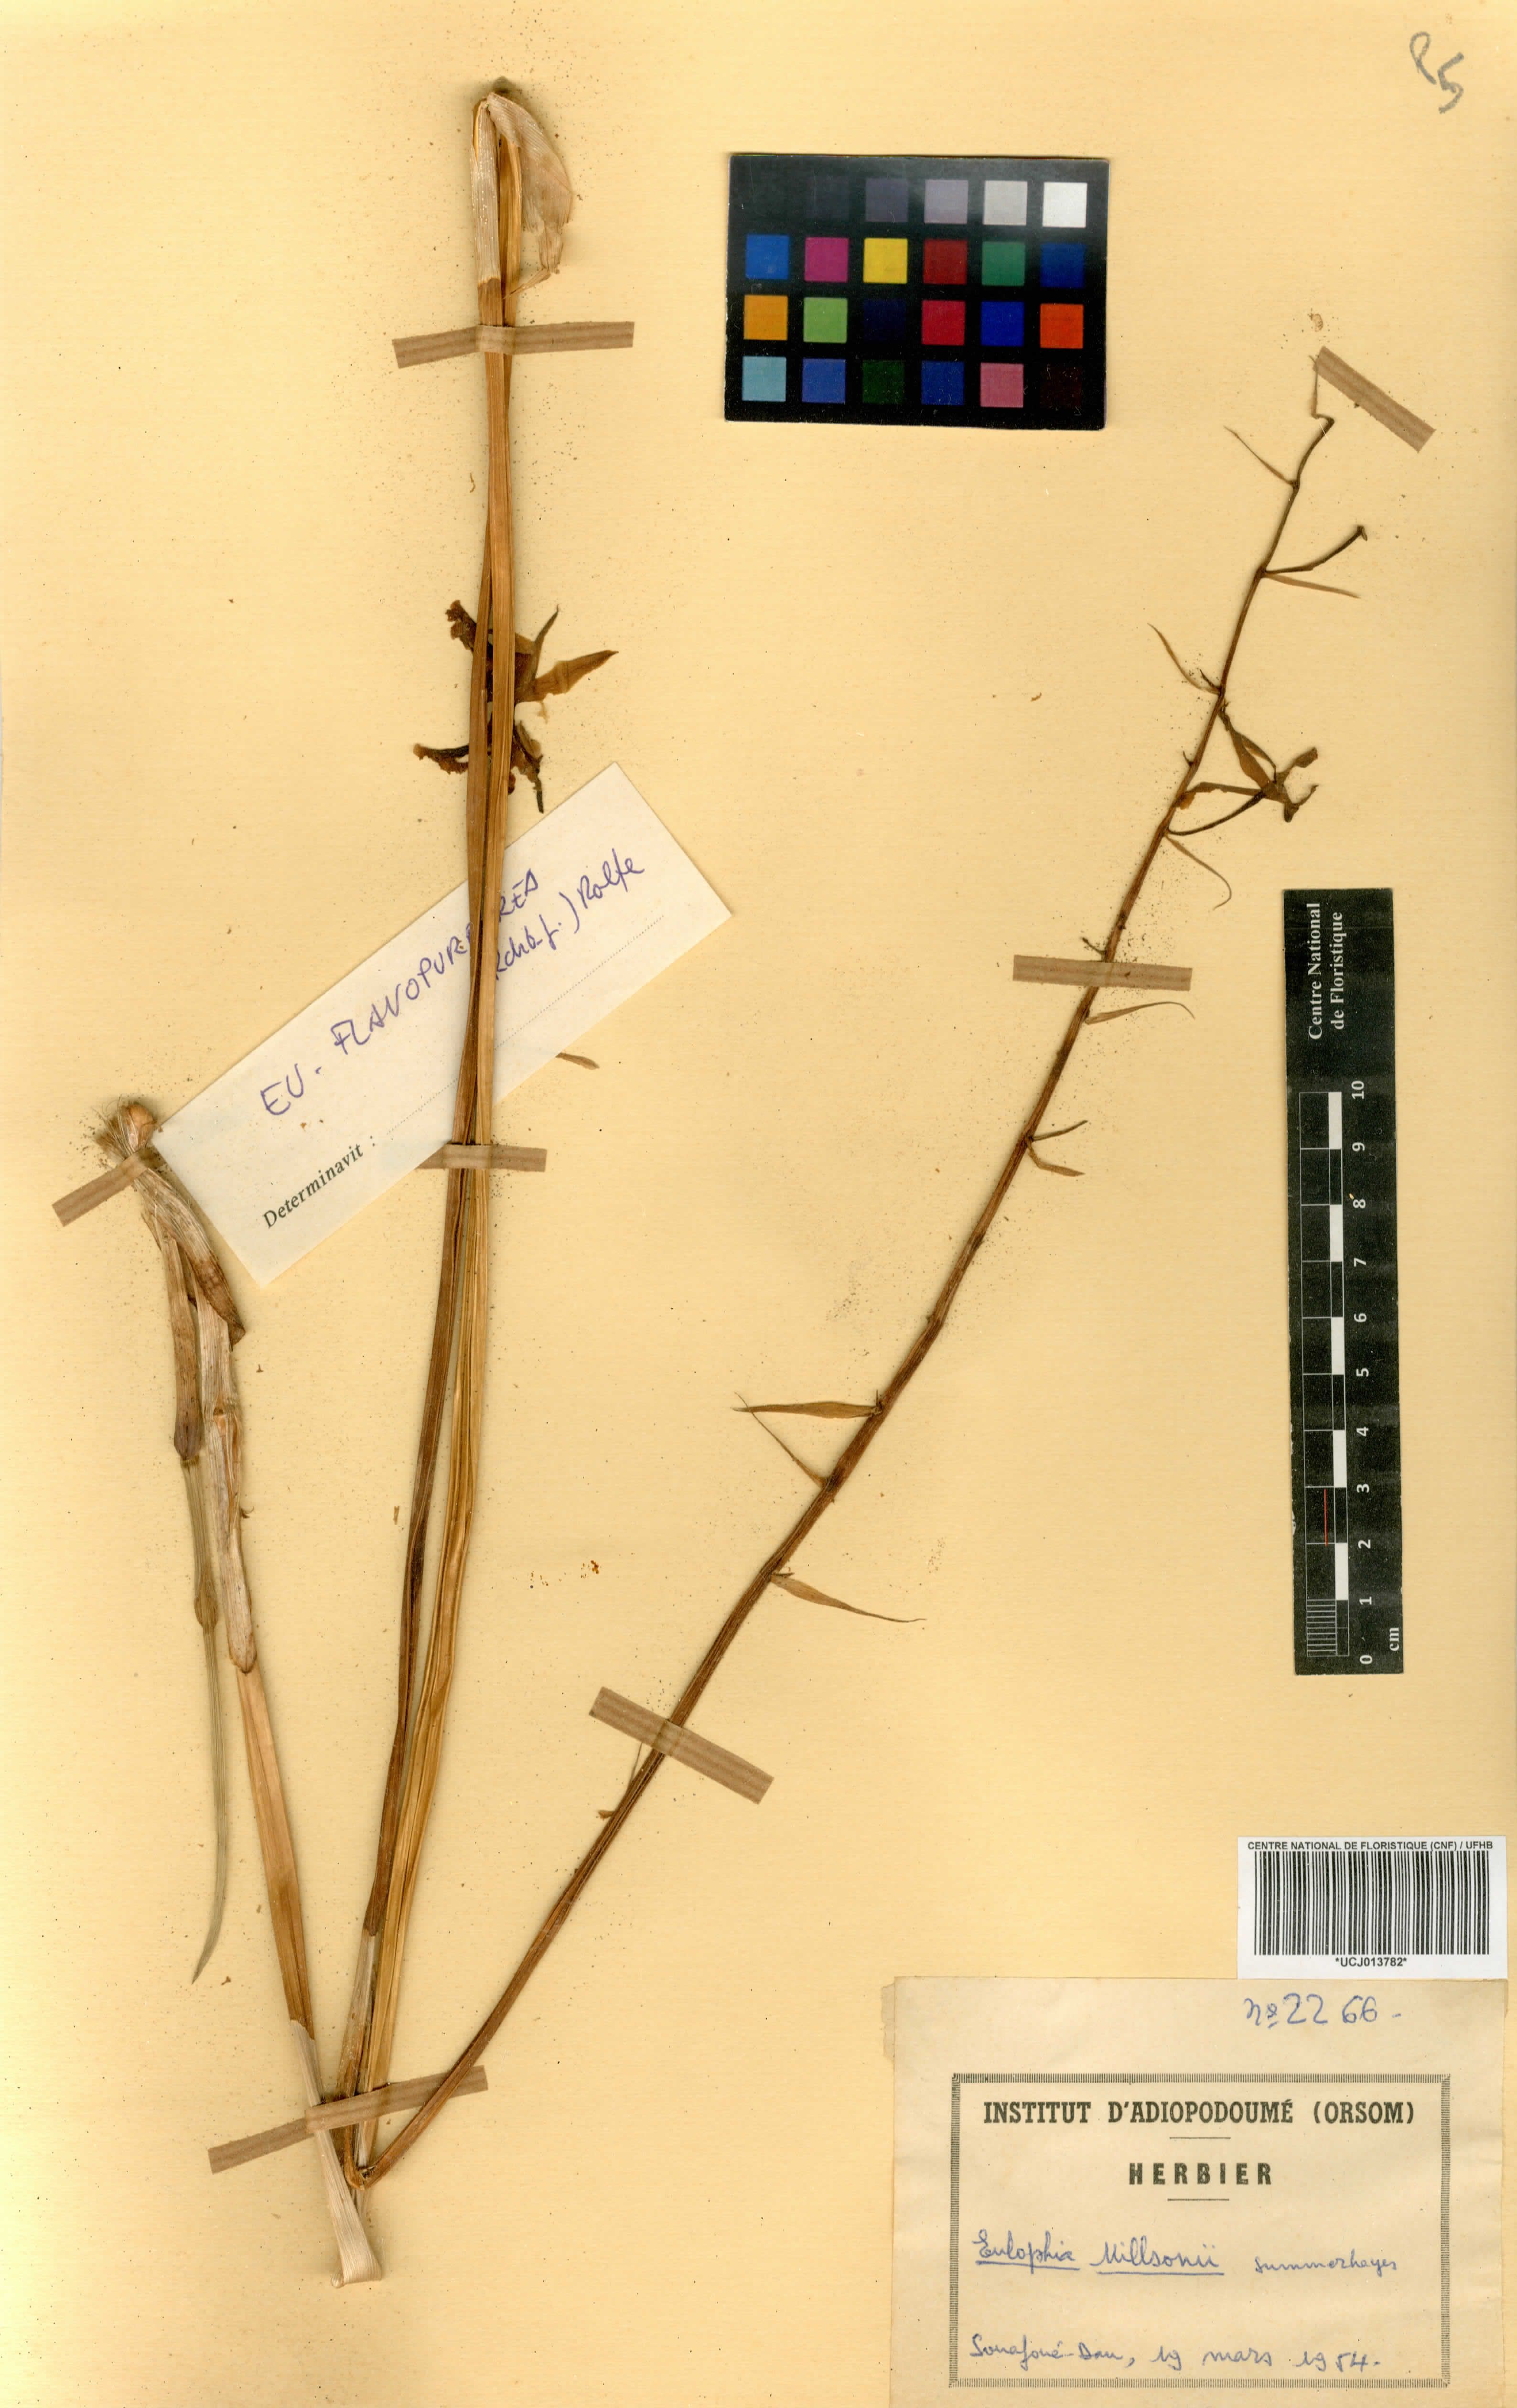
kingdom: Plantae
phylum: Tracheophyta
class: Liliopsida
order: Asparagales
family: Orchidaceae
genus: Eulophia
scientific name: Eulophia flavopurpurea
